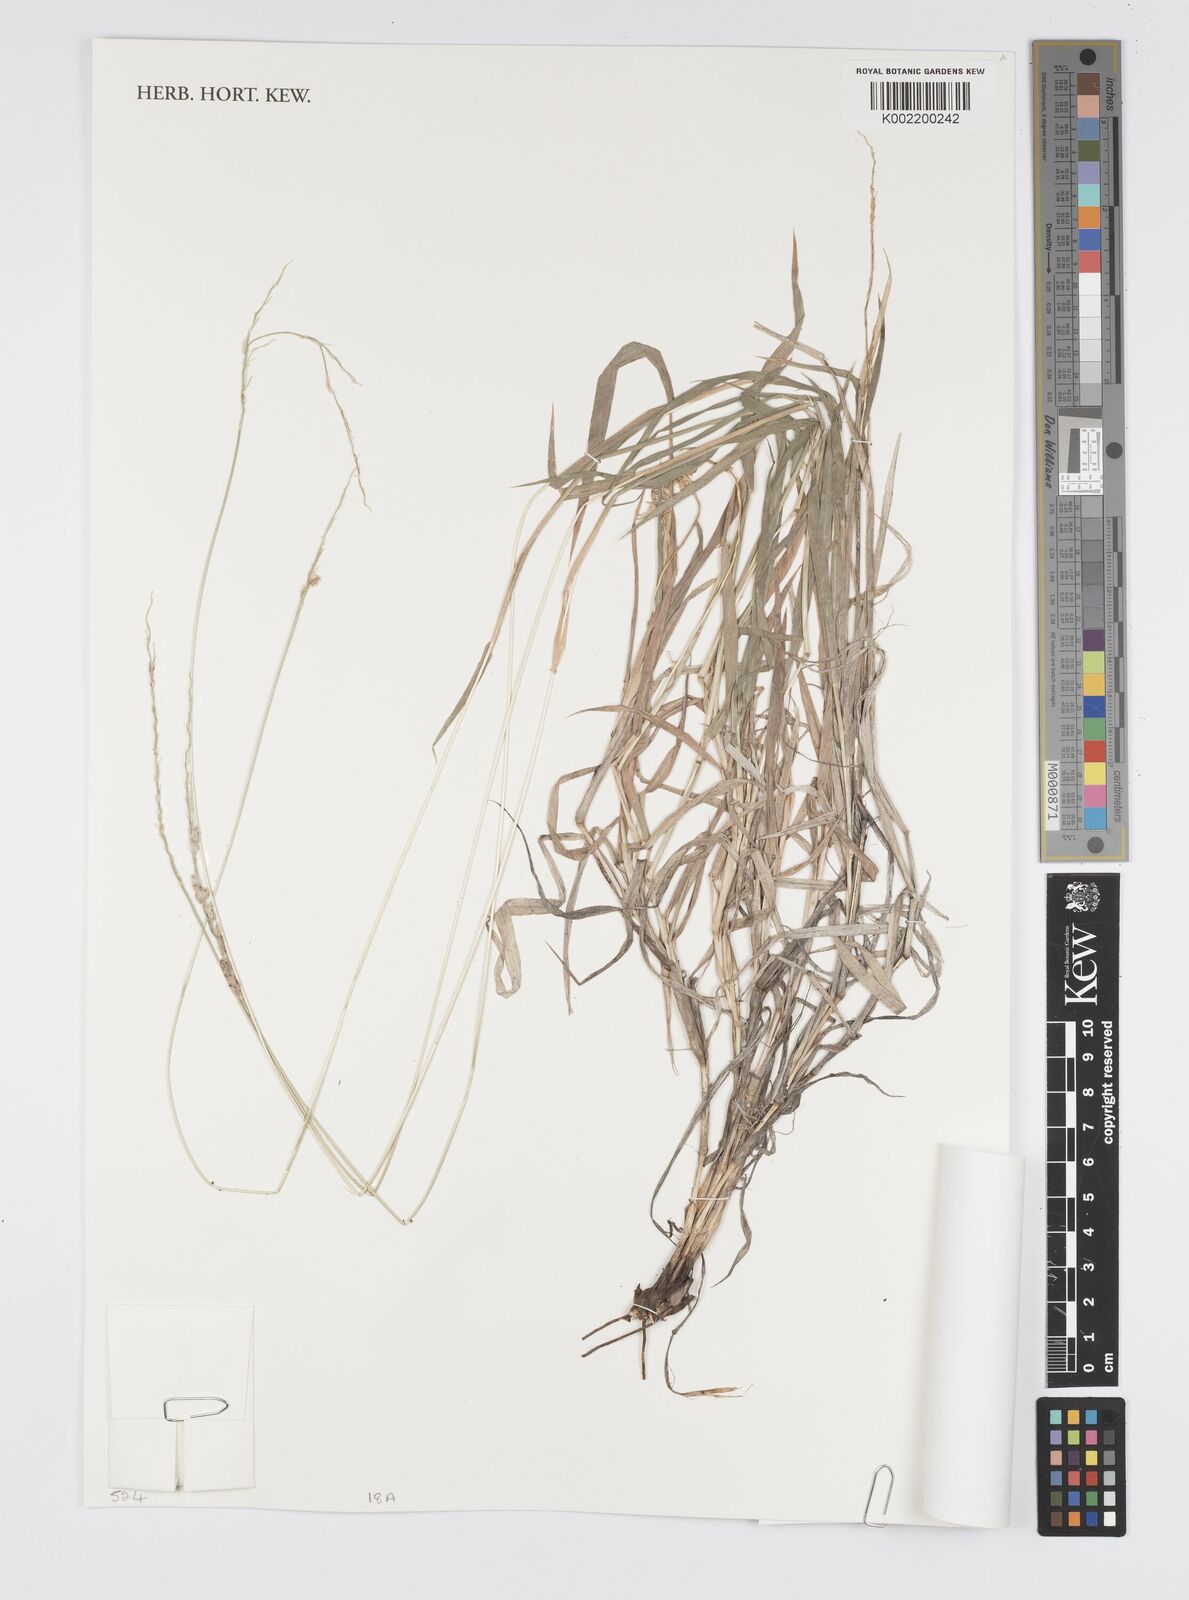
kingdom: Plantae
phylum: Tracheophyta
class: Liliopsida
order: Poales
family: Poaceae
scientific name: Poaceae
